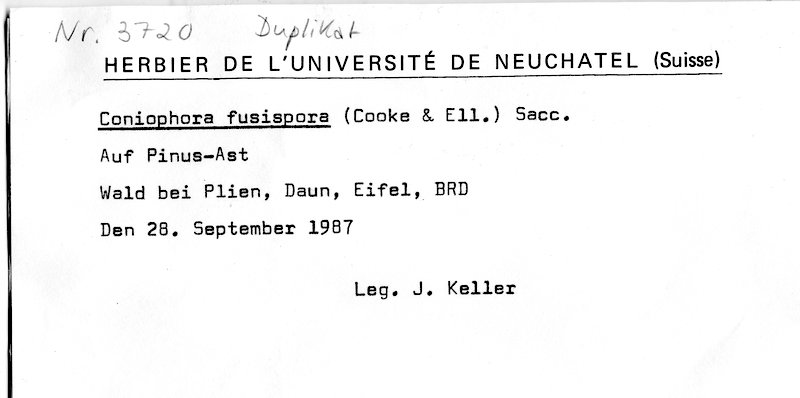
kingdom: Plantae
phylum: Tracheophyta
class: Pinopsida
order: Pinales
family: Pinaceae
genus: Pinus
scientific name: Pinus
